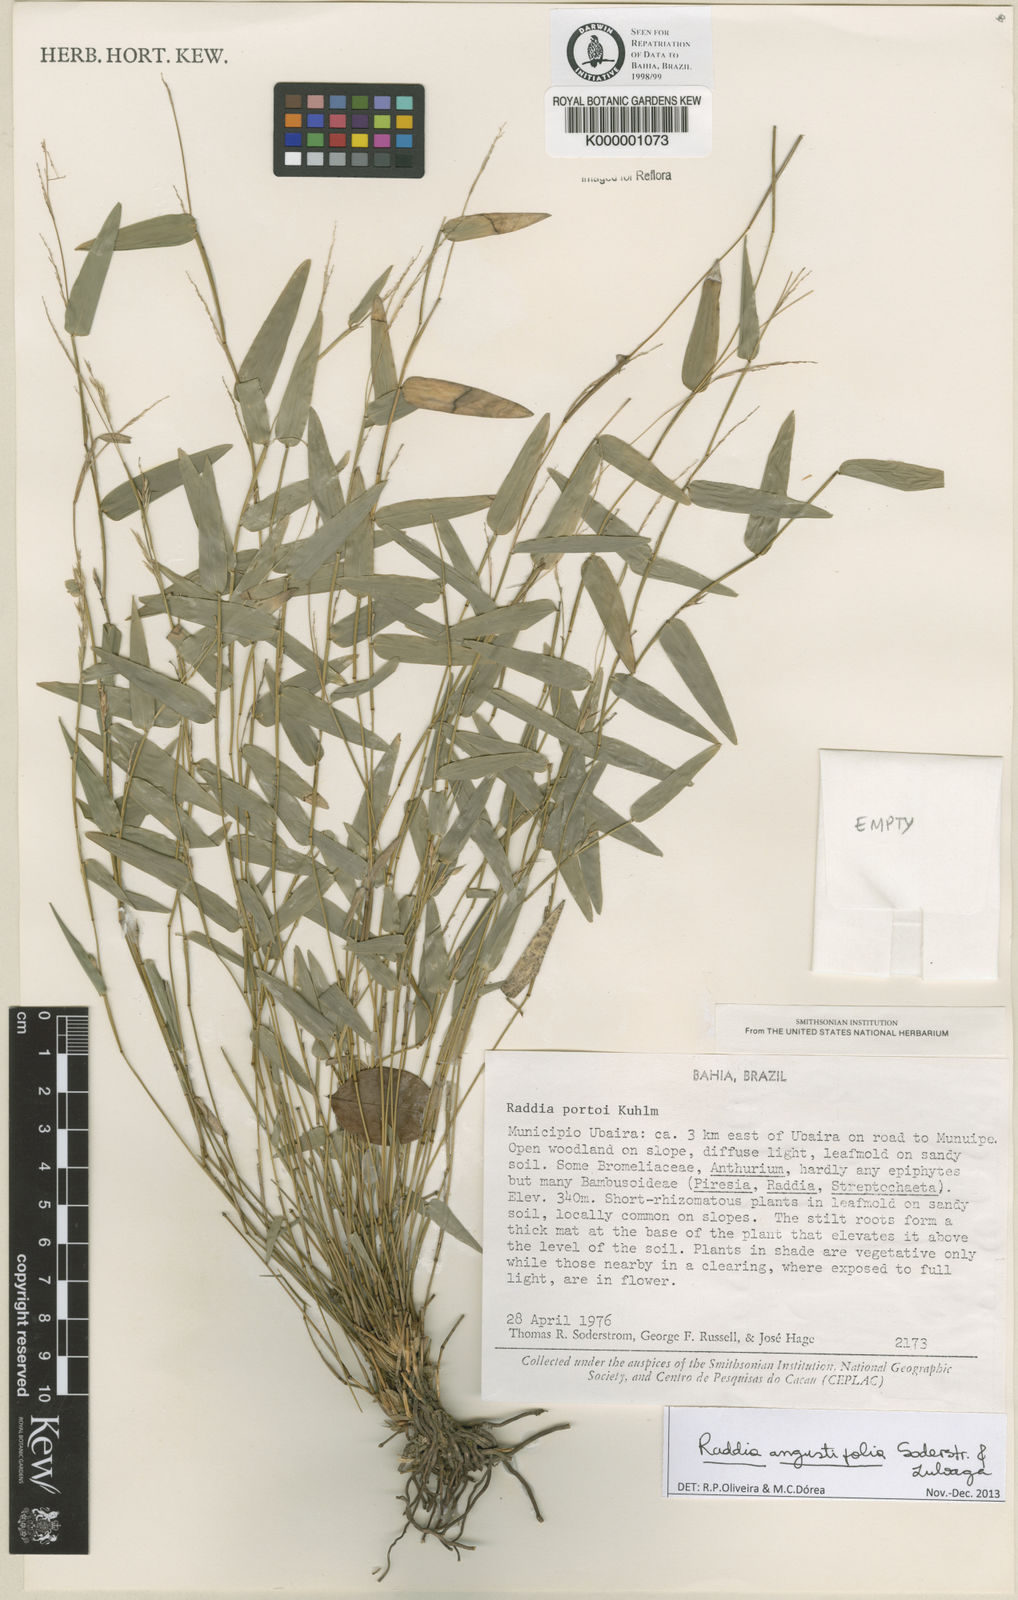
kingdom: Plantae
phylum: Tracheophyta
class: Liliopsida
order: Poales
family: Poaceae
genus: Raddia
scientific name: Raddia portoi
